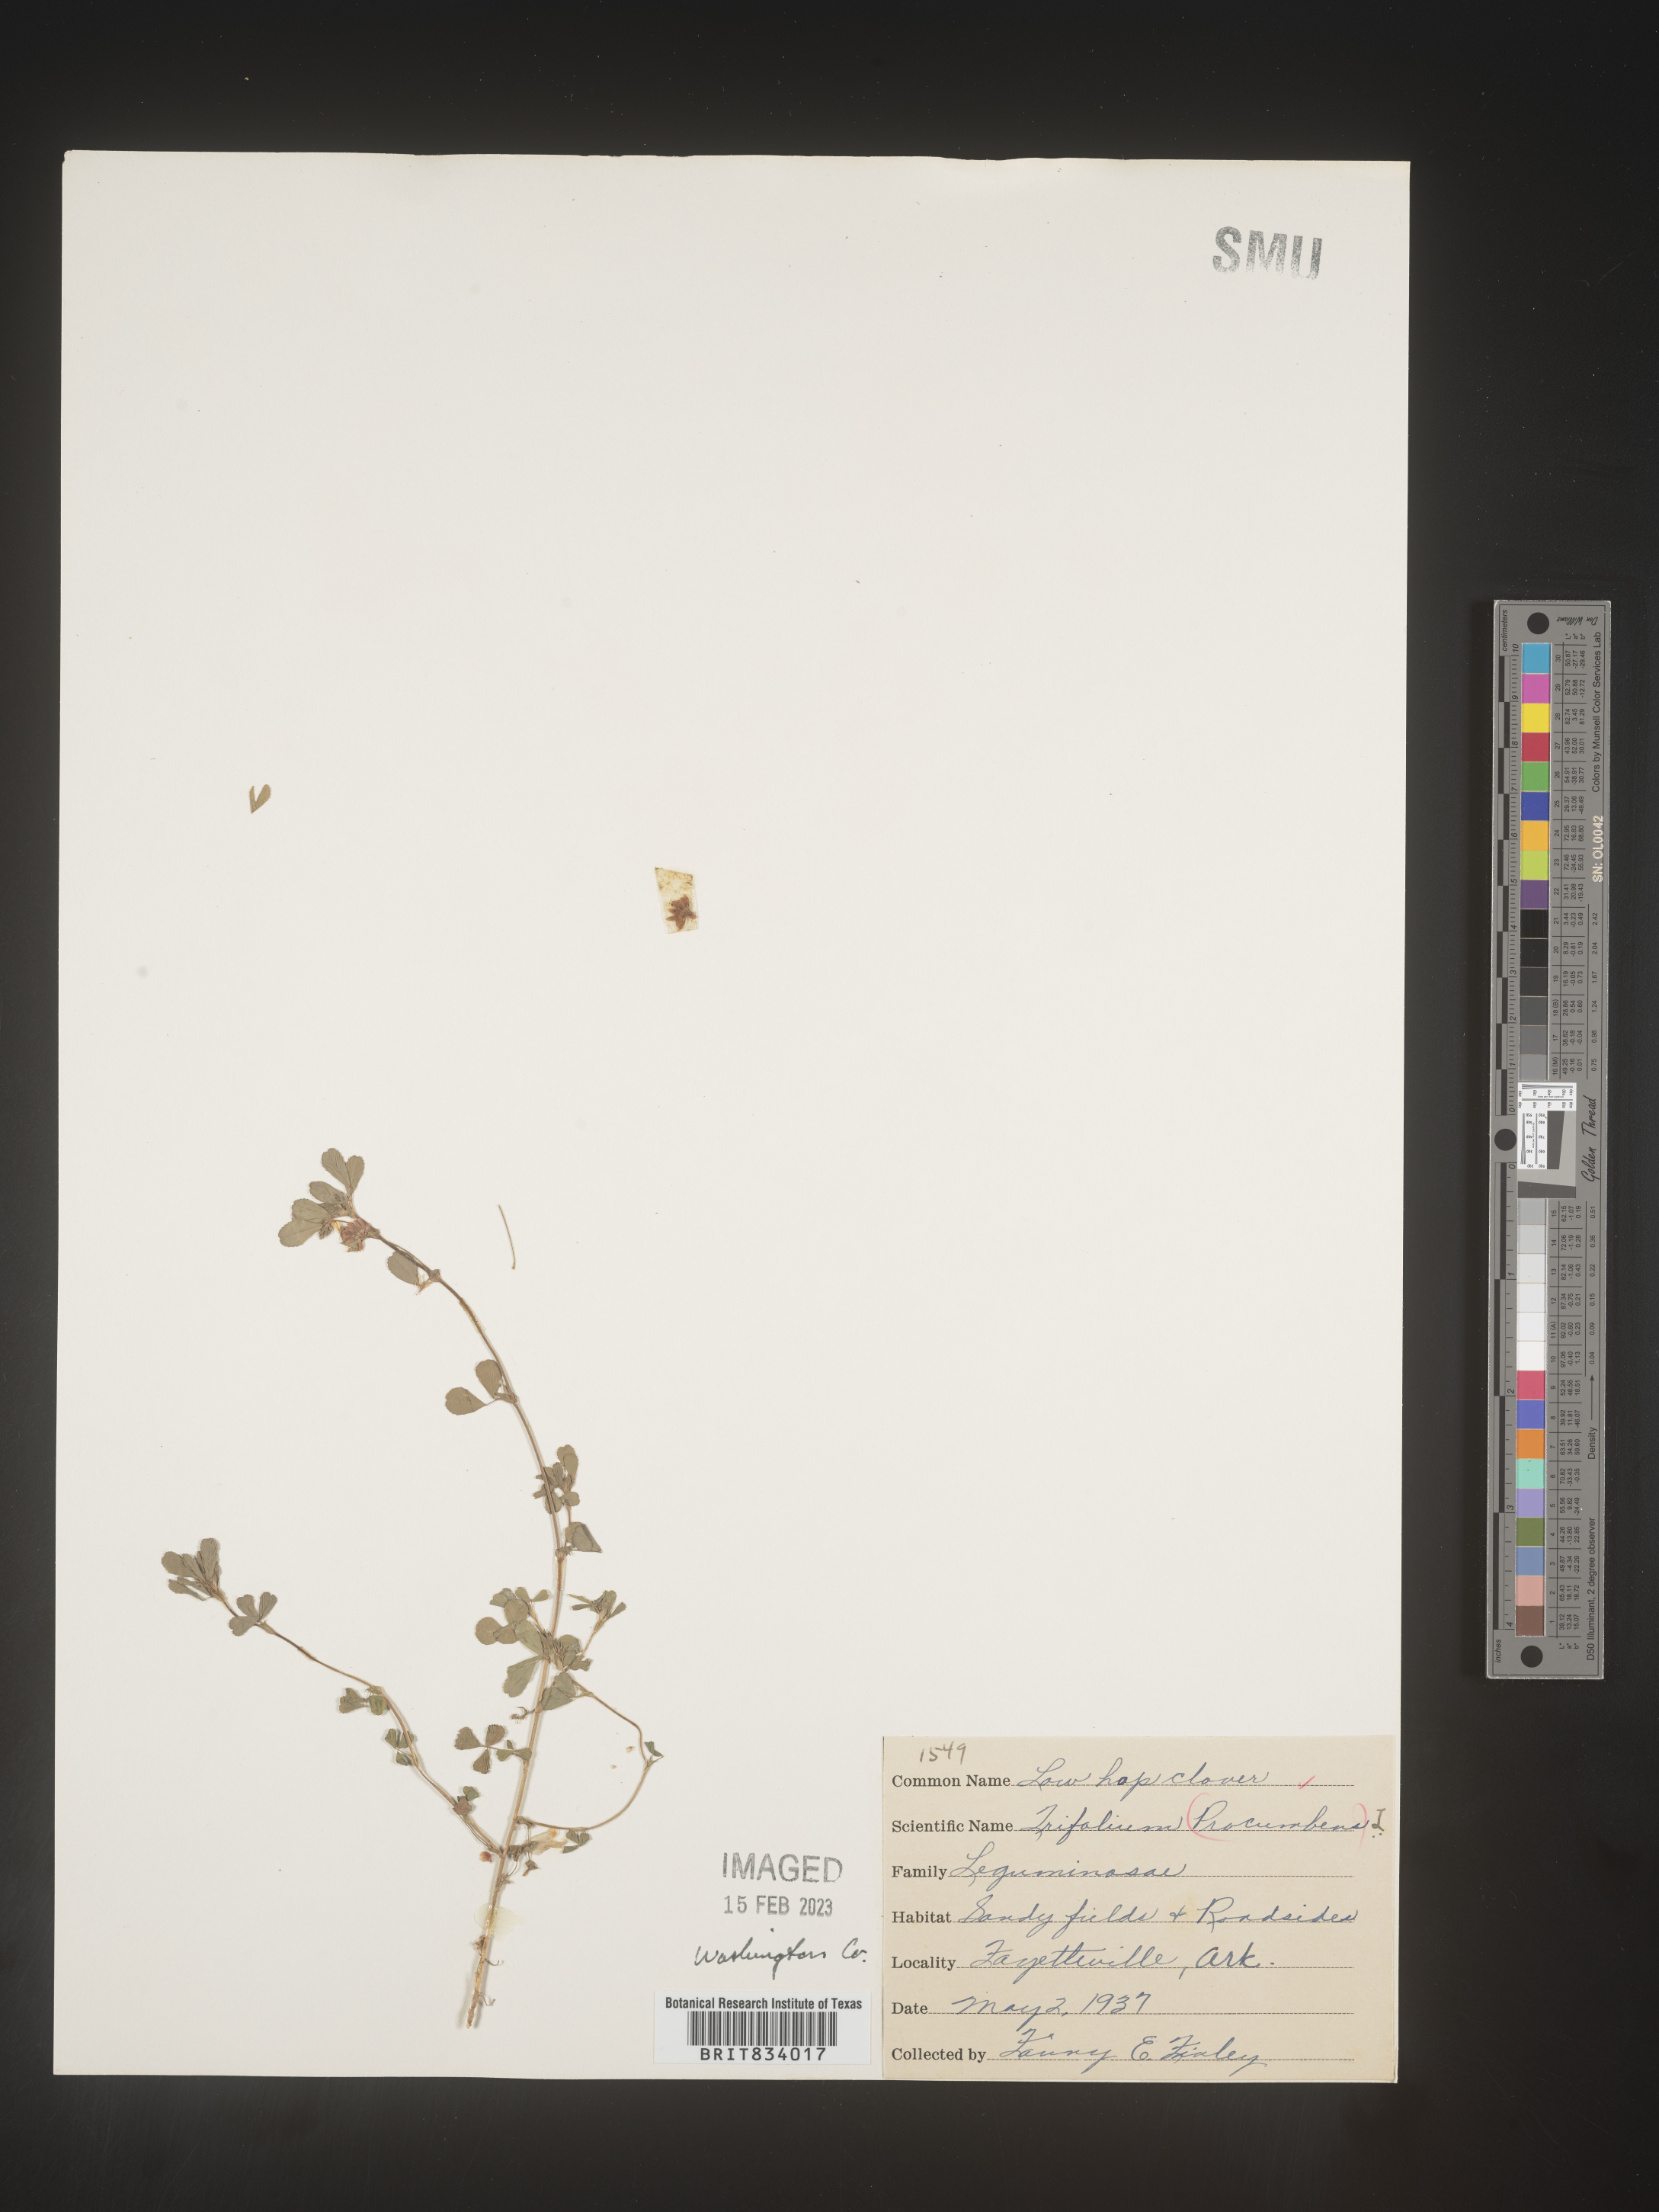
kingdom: Plantae
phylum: Tracheophyta
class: Magnoliopsida
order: Fabales
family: Fabaceae
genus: Trifolium
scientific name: Trifolium campestre
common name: Field clover
